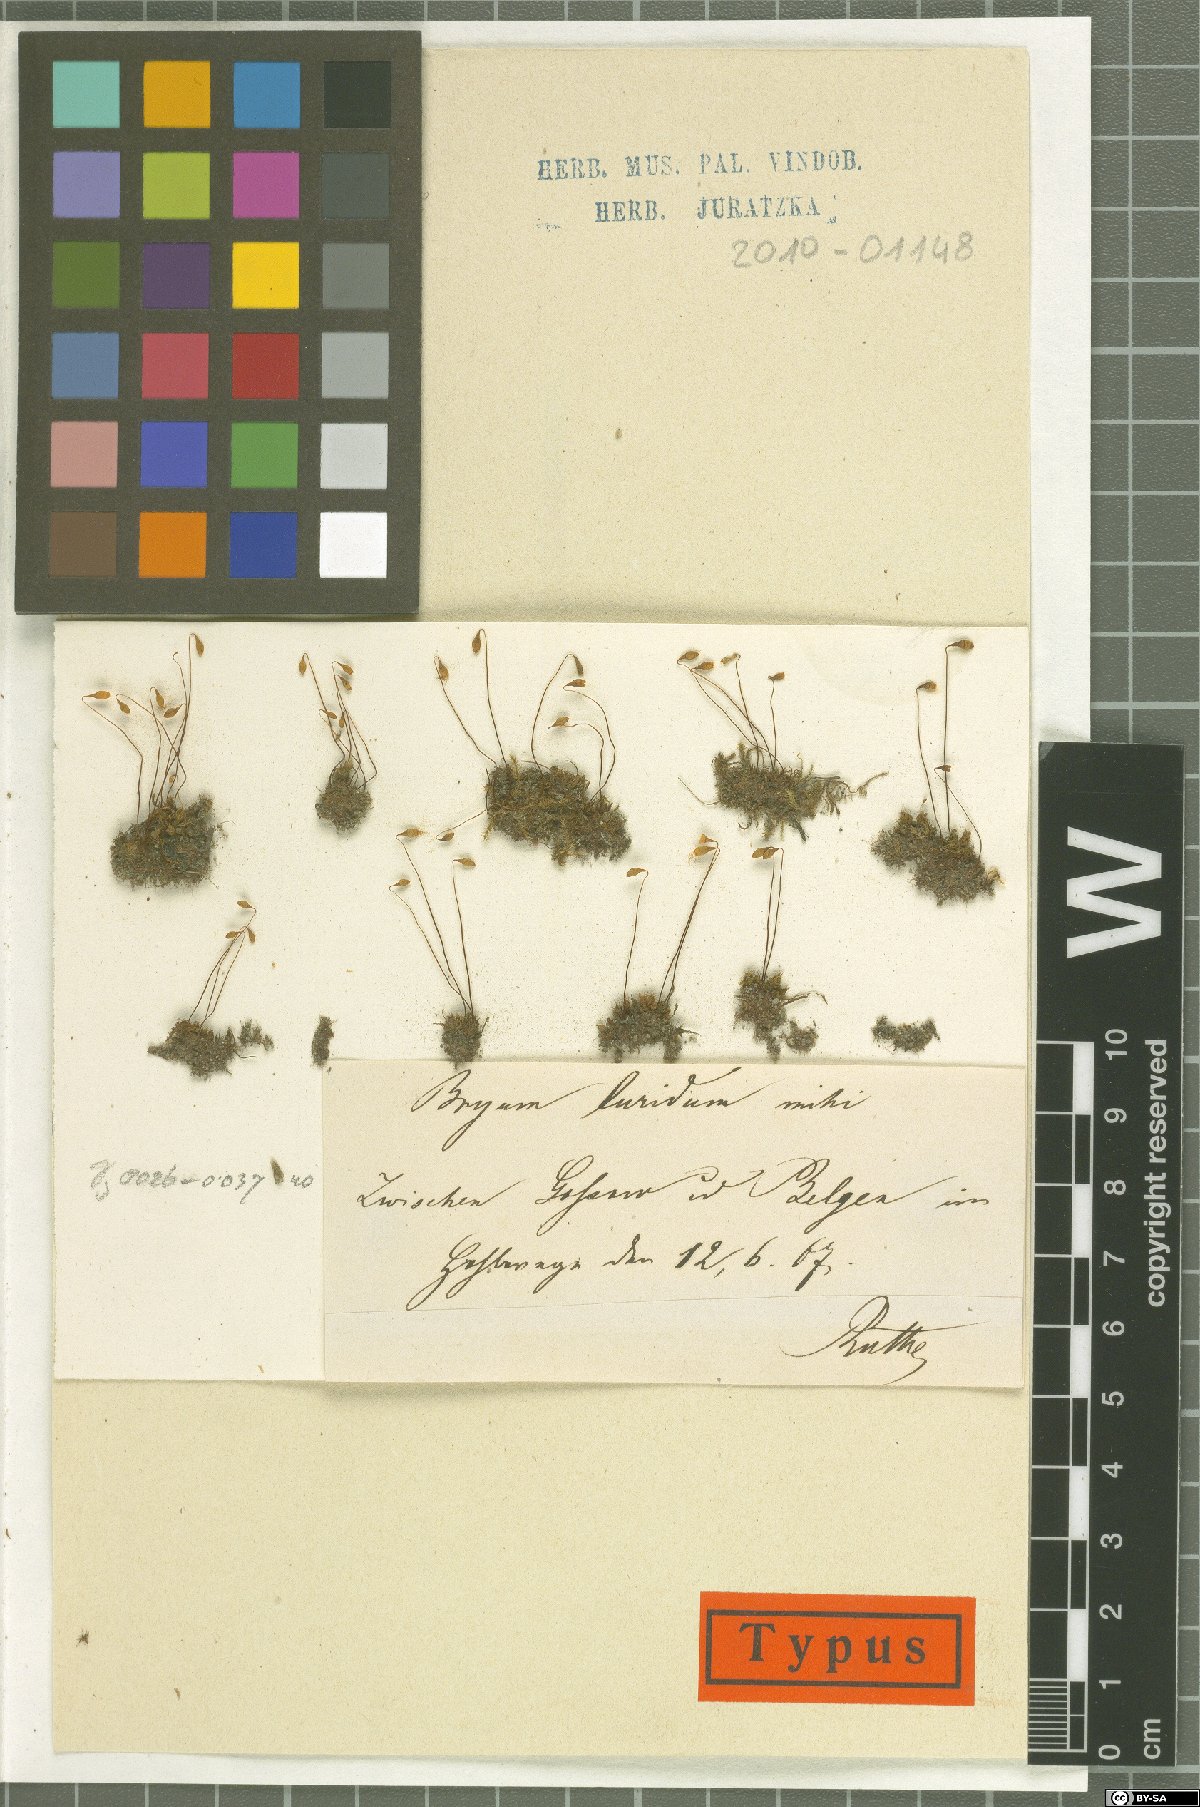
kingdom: Plantae
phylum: Bryophyta
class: Bryopsida
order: Bryales
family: Bryaceae
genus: Ptychostomum
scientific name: Ptychostomum arcticum
